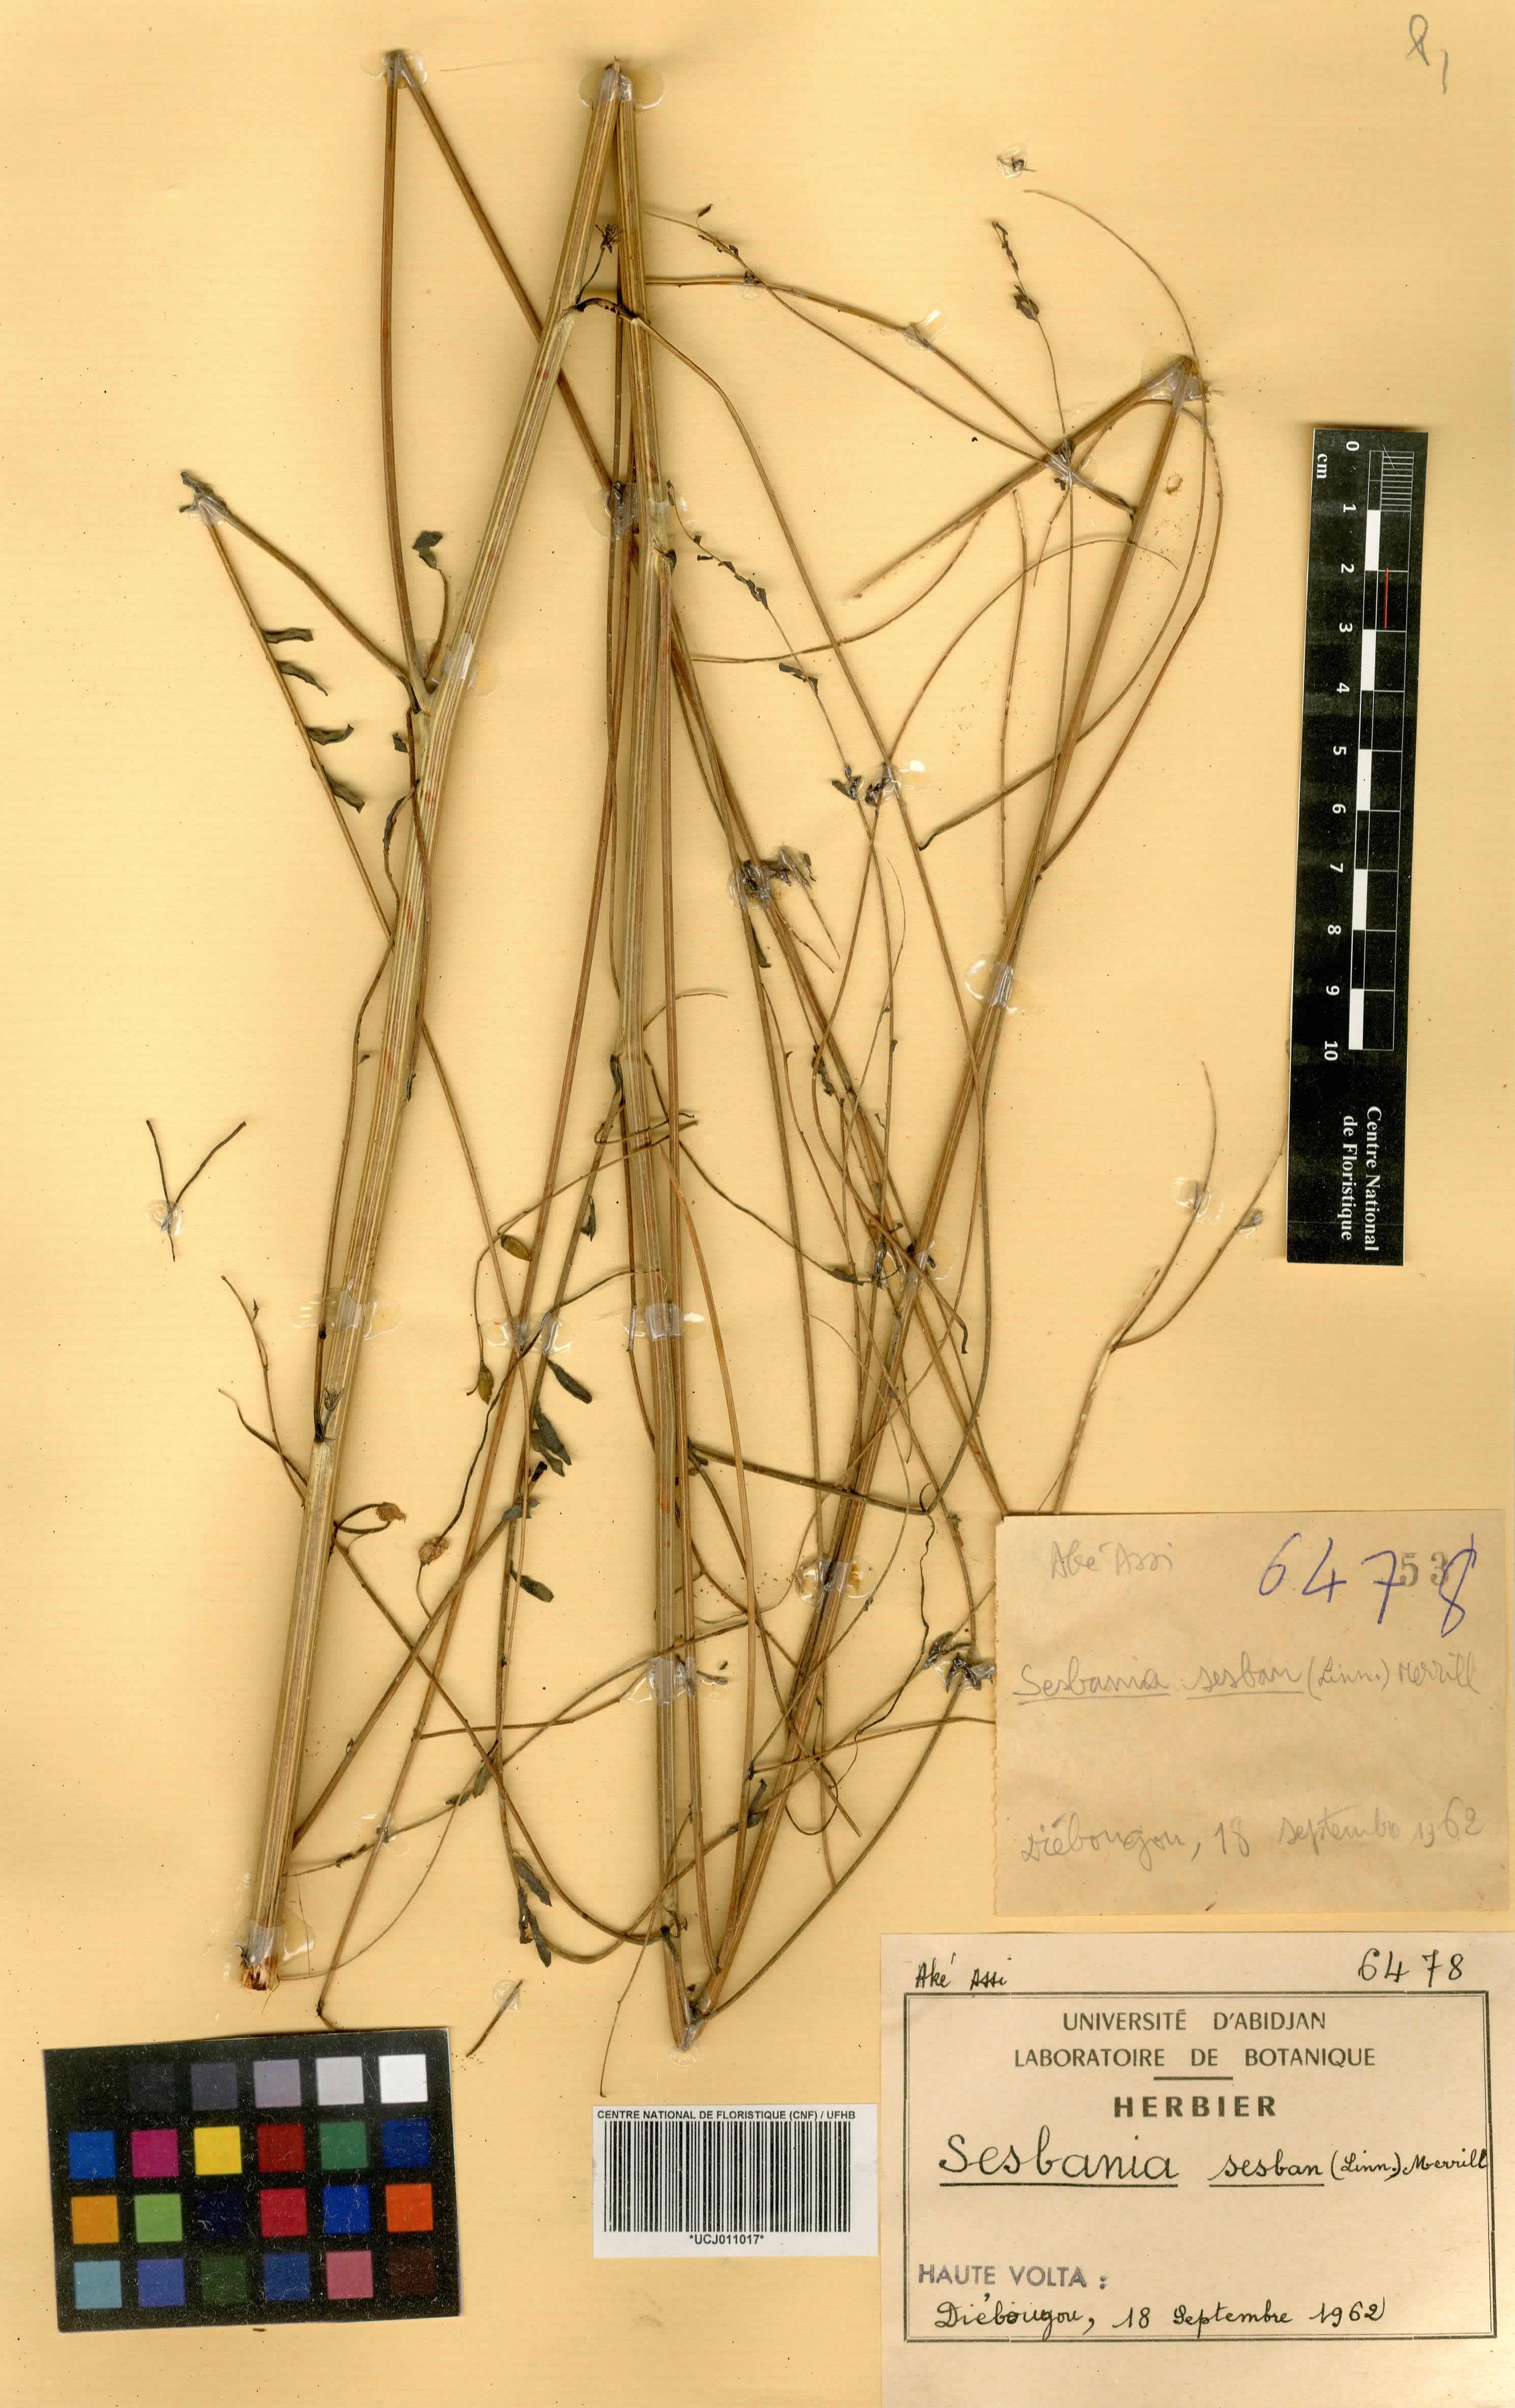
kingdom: Plantae
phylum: Tracheophyta
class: Magnoliopsida
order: Fabales
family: Fabaceae
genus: Sesbania
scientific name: Sesbania sesban
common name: Egyptian sesban
